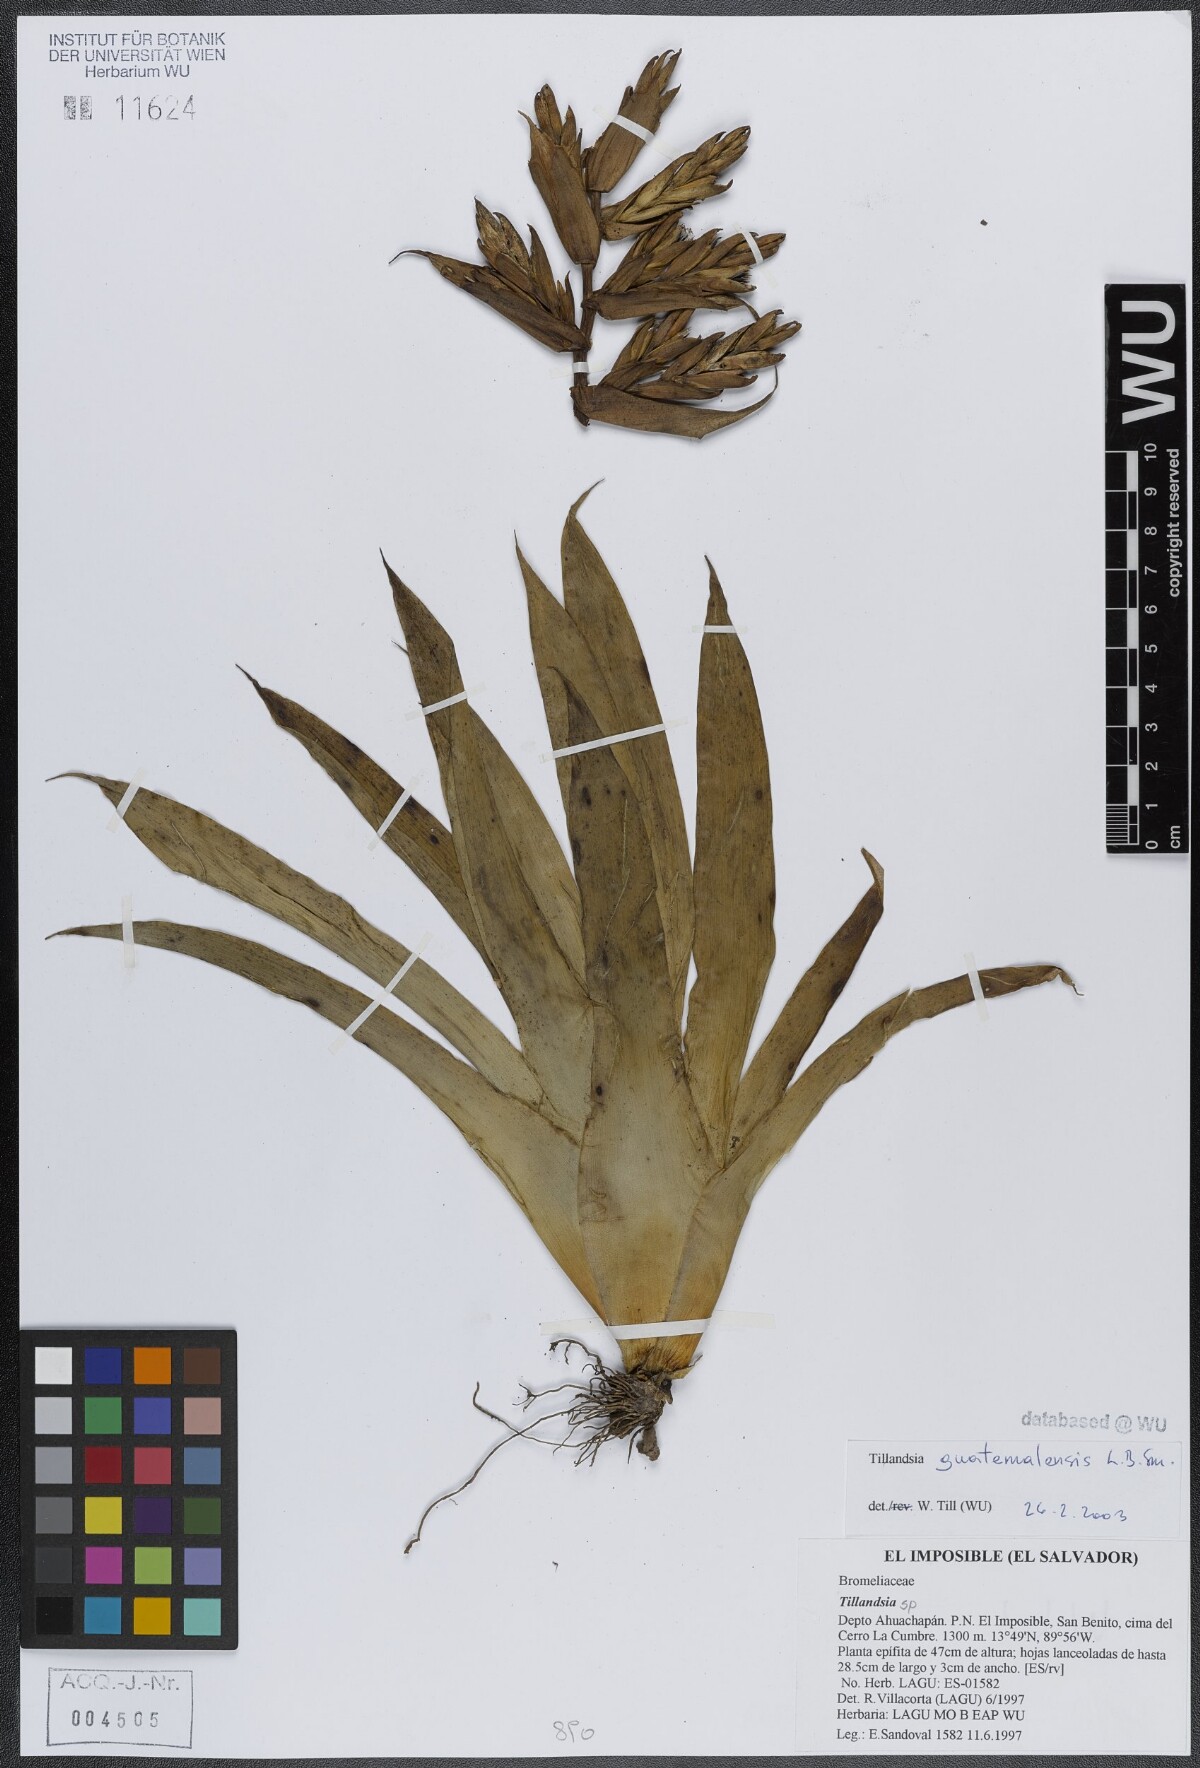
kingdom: Plantae
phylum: Tracheophyta
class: Liliopsida
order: Poales
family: Bromeliaceae
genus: Tillandsia
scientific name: Tillandsia guatemalensis
